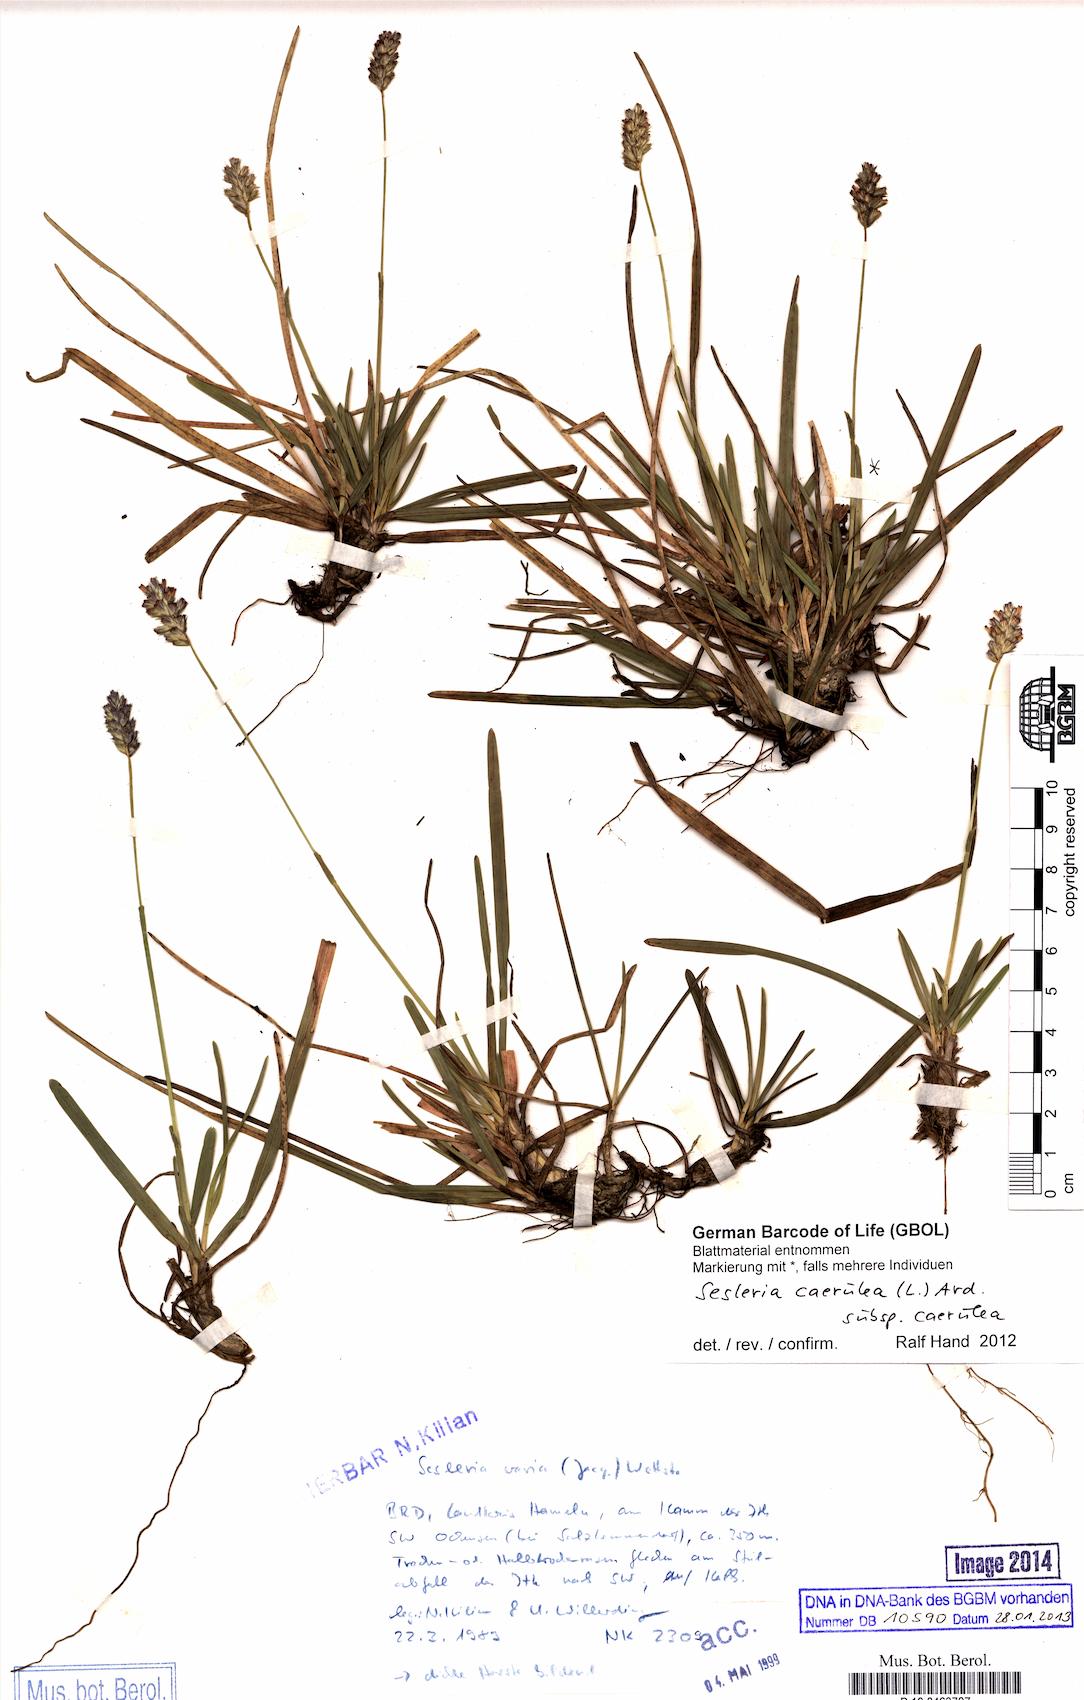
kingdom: Plantae
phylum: Tracheophyta
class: Liliopsida
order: Poales
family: Poaceae
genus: Sesleria
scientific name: Sesleria caerulea
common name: Blue moor-grass
